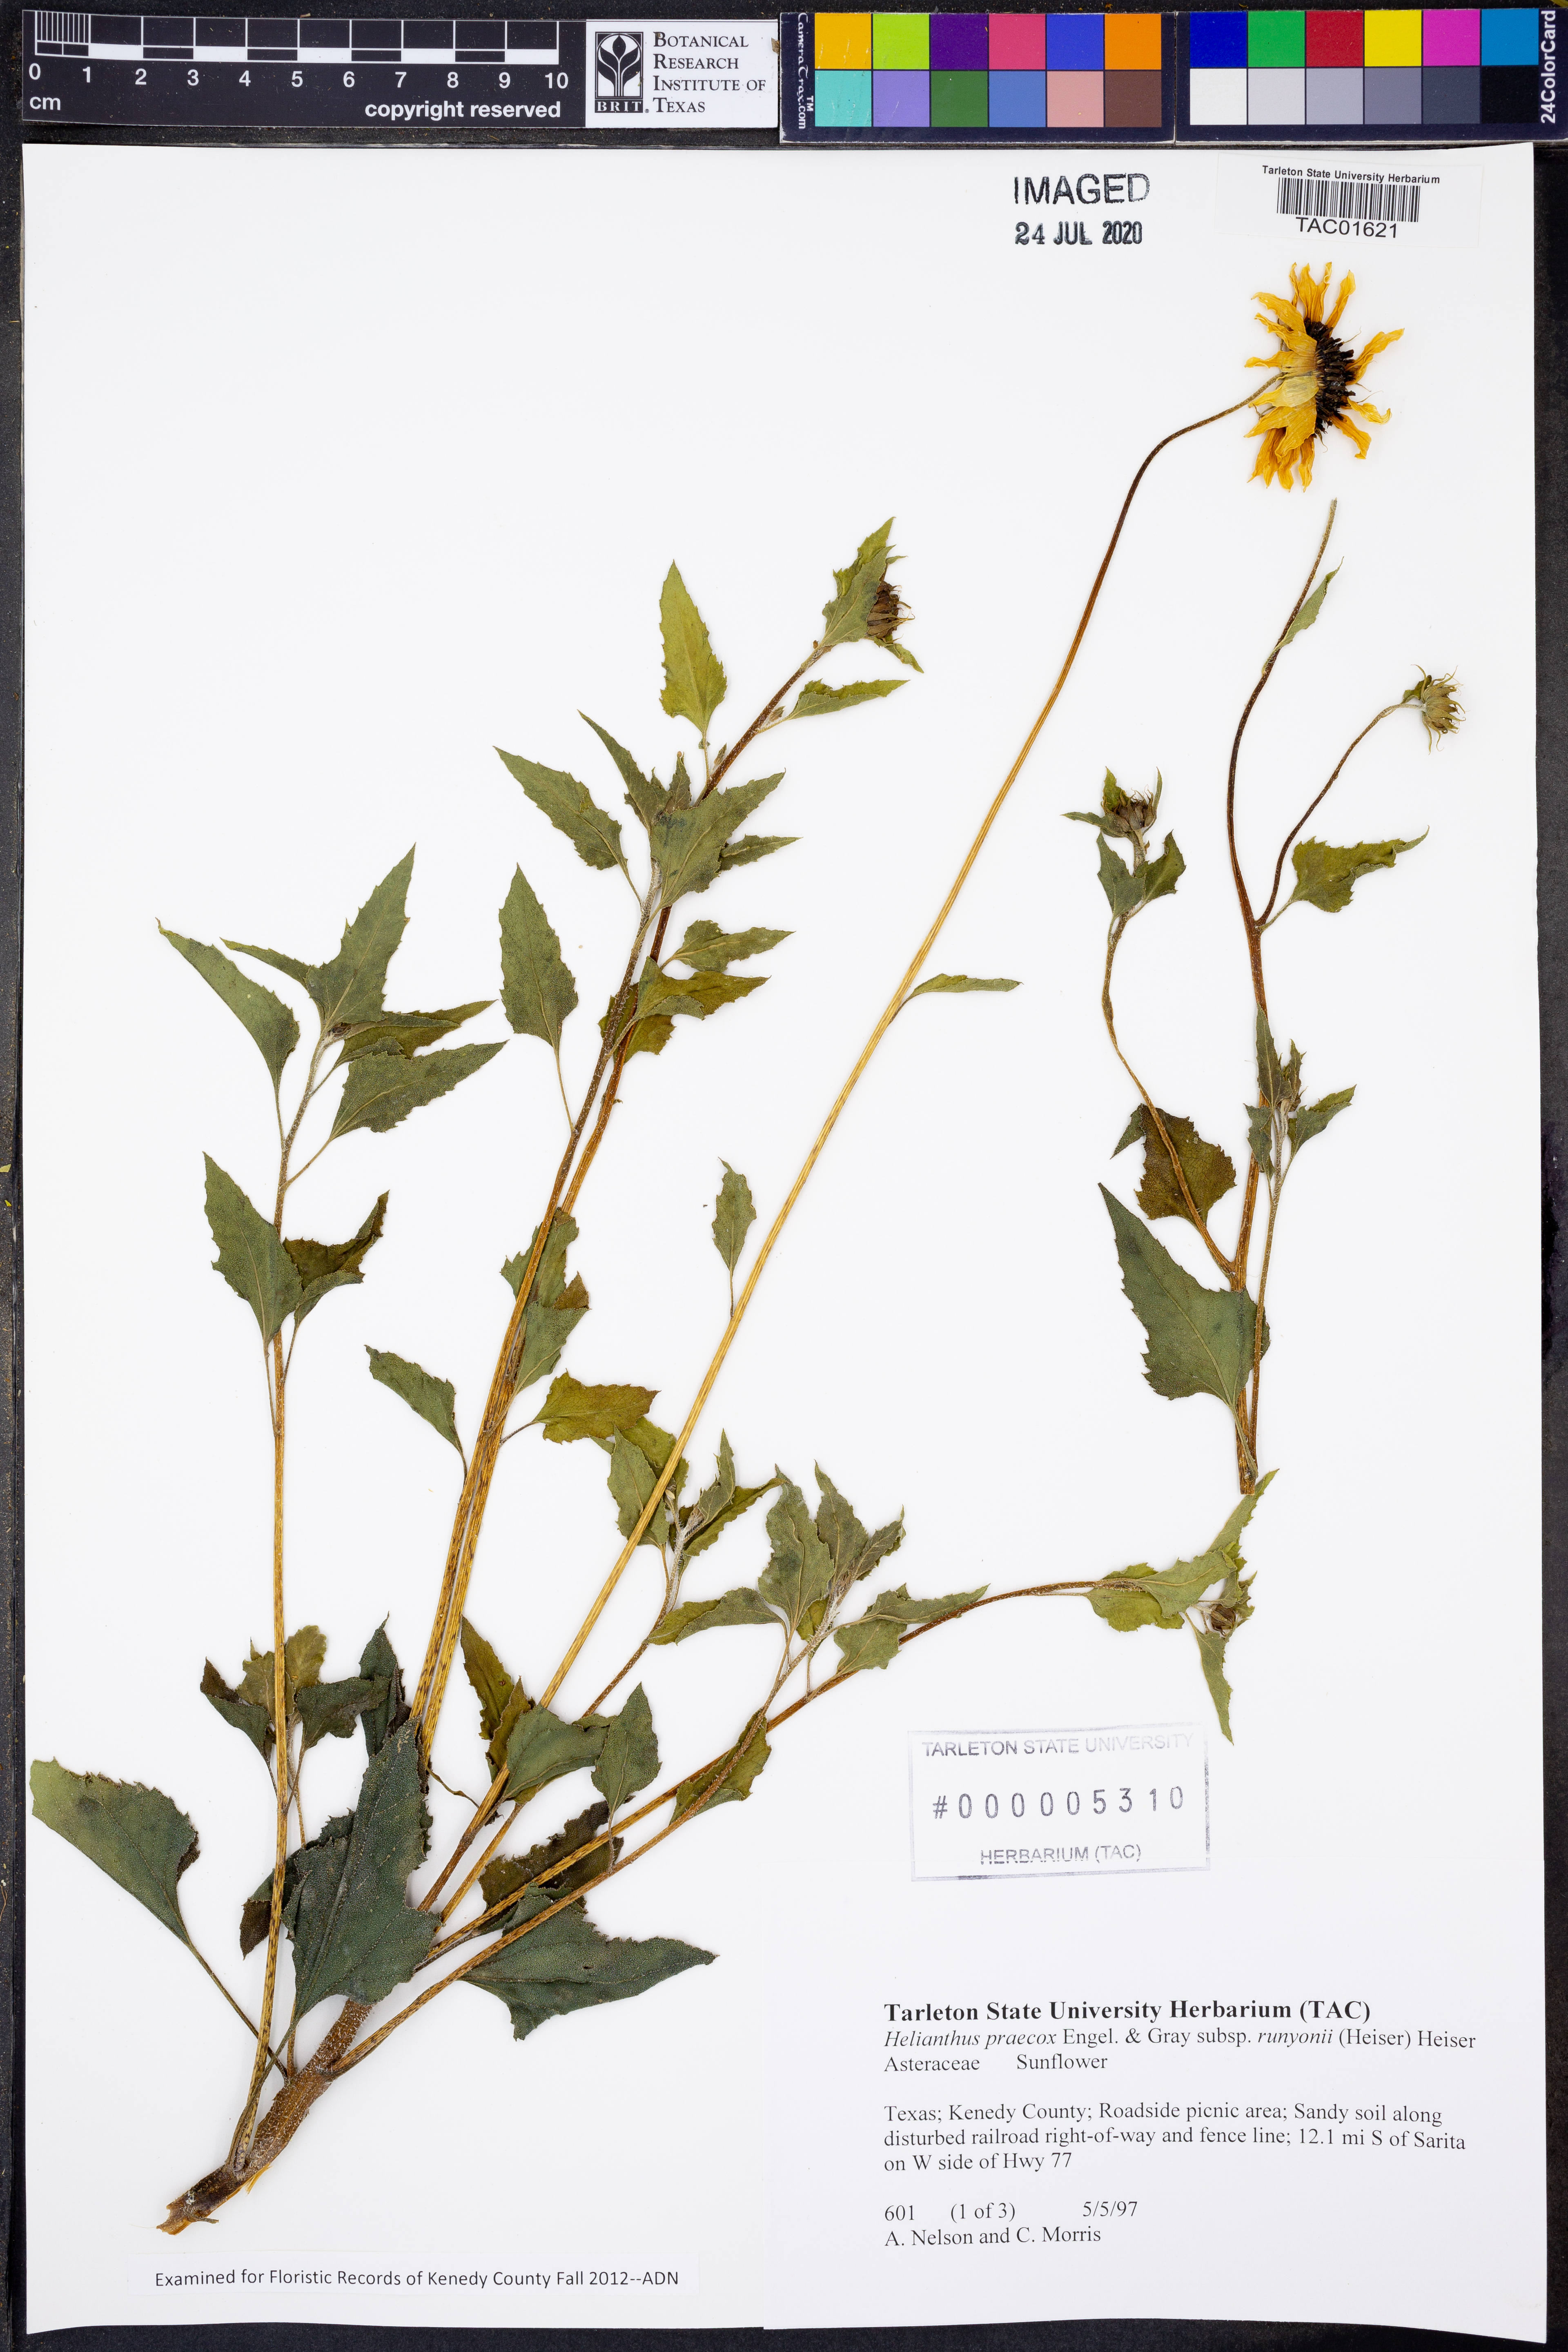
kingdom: Plantae
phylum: Tracheophyta
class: Magnoliopsida
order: Asterales
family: Asteraceae
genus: Helianthus
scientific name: Helianthus praecox
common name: Texas sunflower
